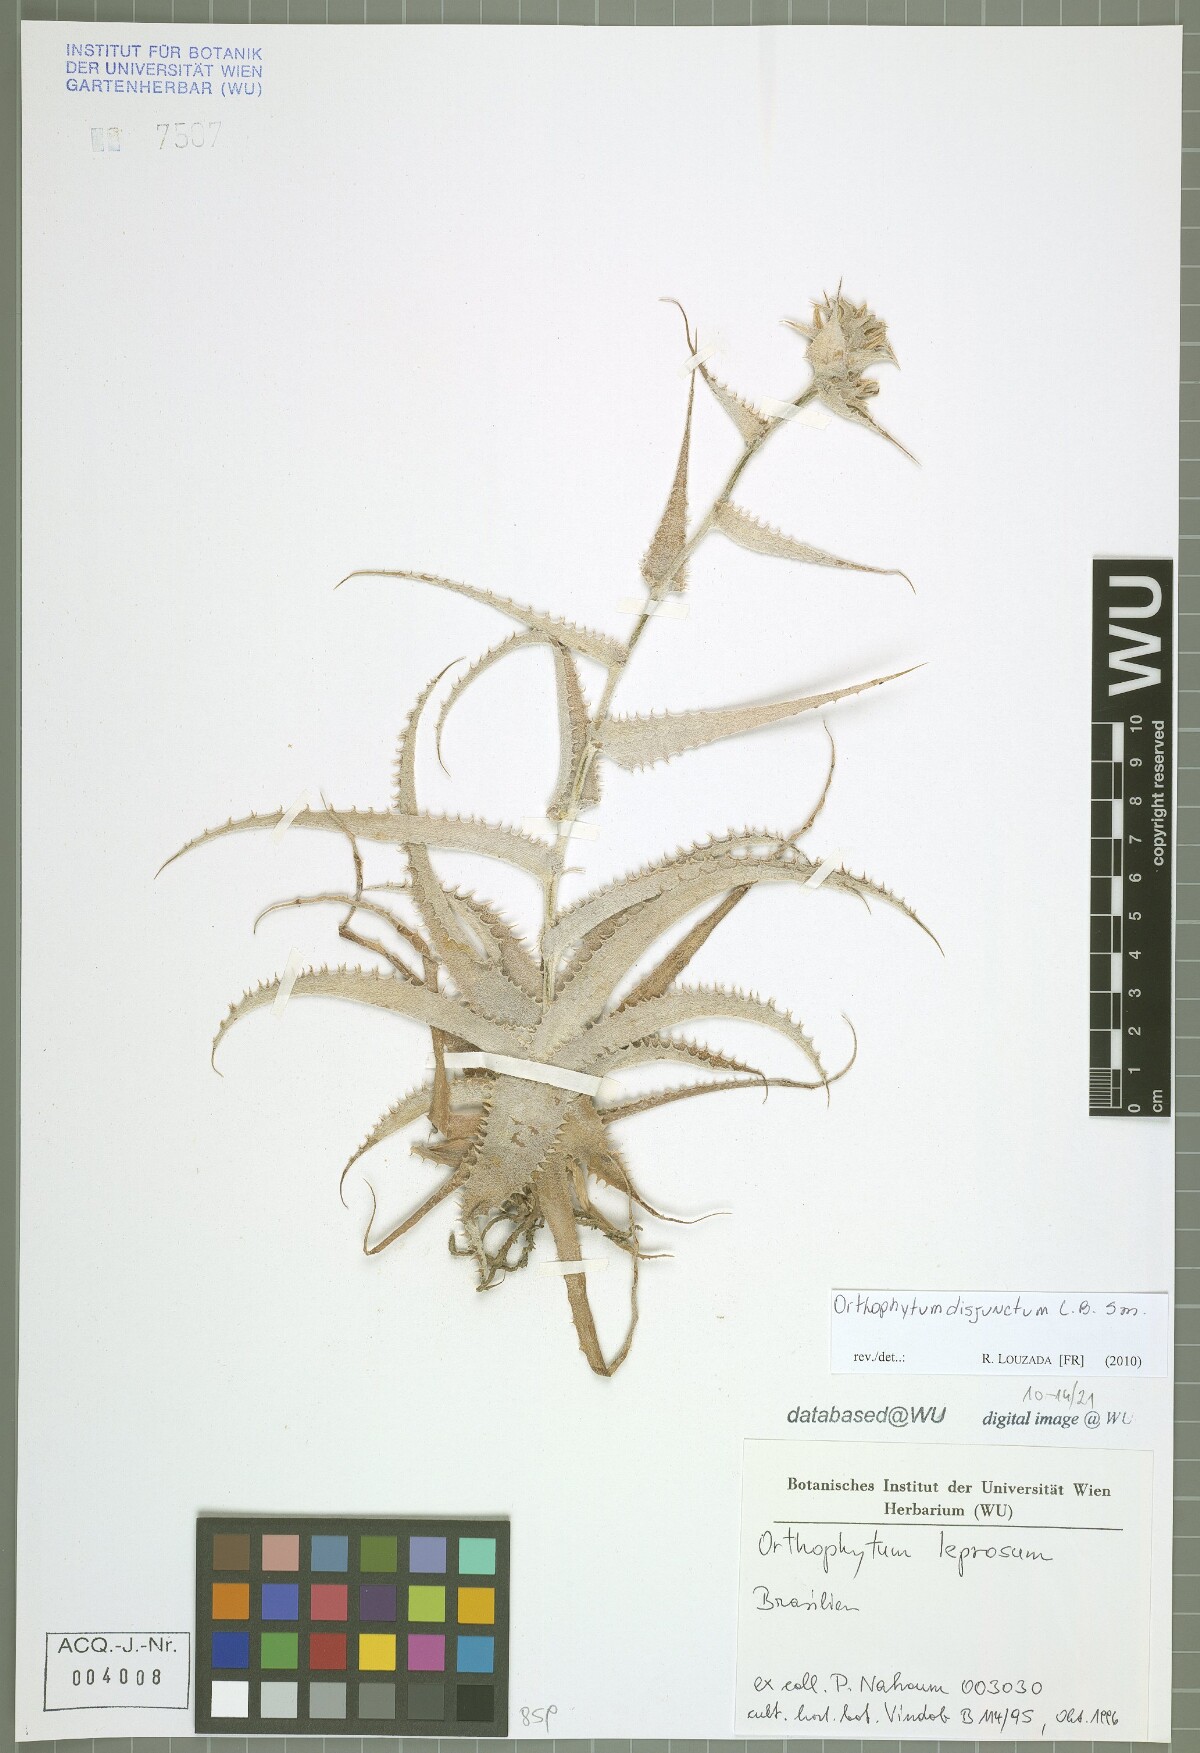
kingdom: Plantae
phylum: Tracheophyta
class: Liliopsida
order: Poales
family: Bromeliaceae
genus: Orthophytum
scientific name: Orthophytum disjunctum
